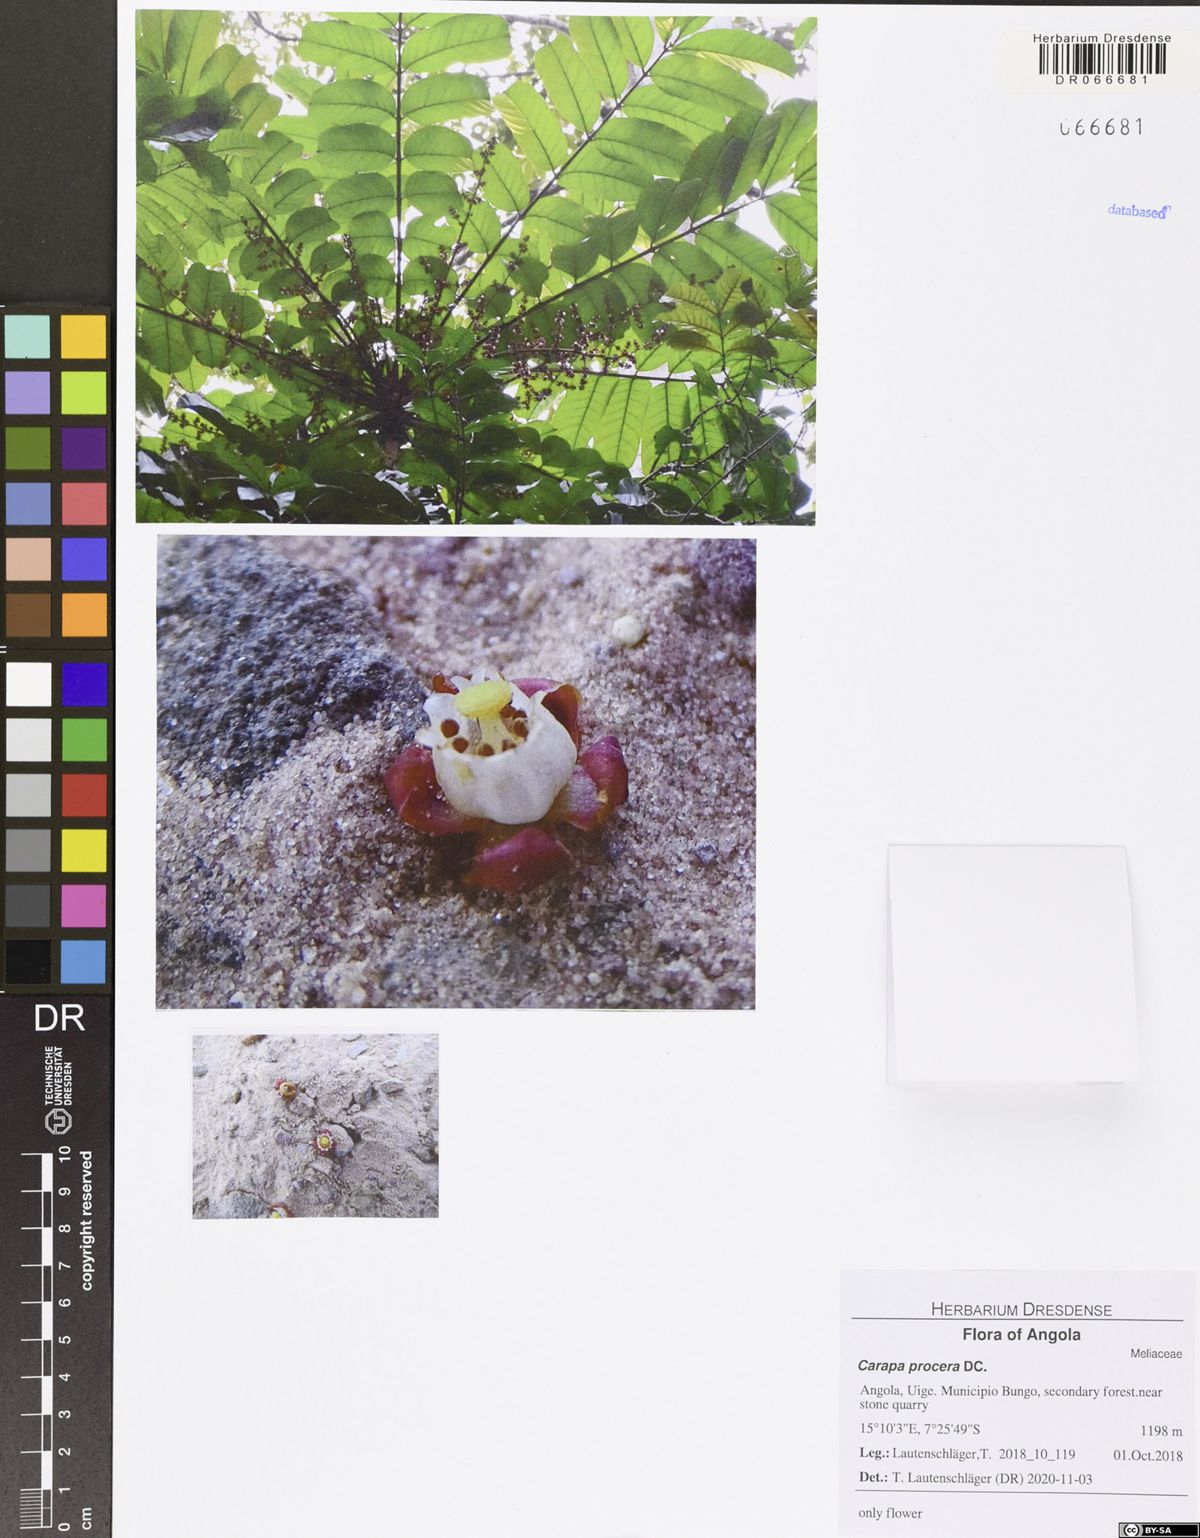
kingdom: Plantae
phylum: Tracheophyta
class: Magnoliopsida
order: Sapindales
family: Meliaceae
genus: Carapa
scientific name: Carapa macrantha
